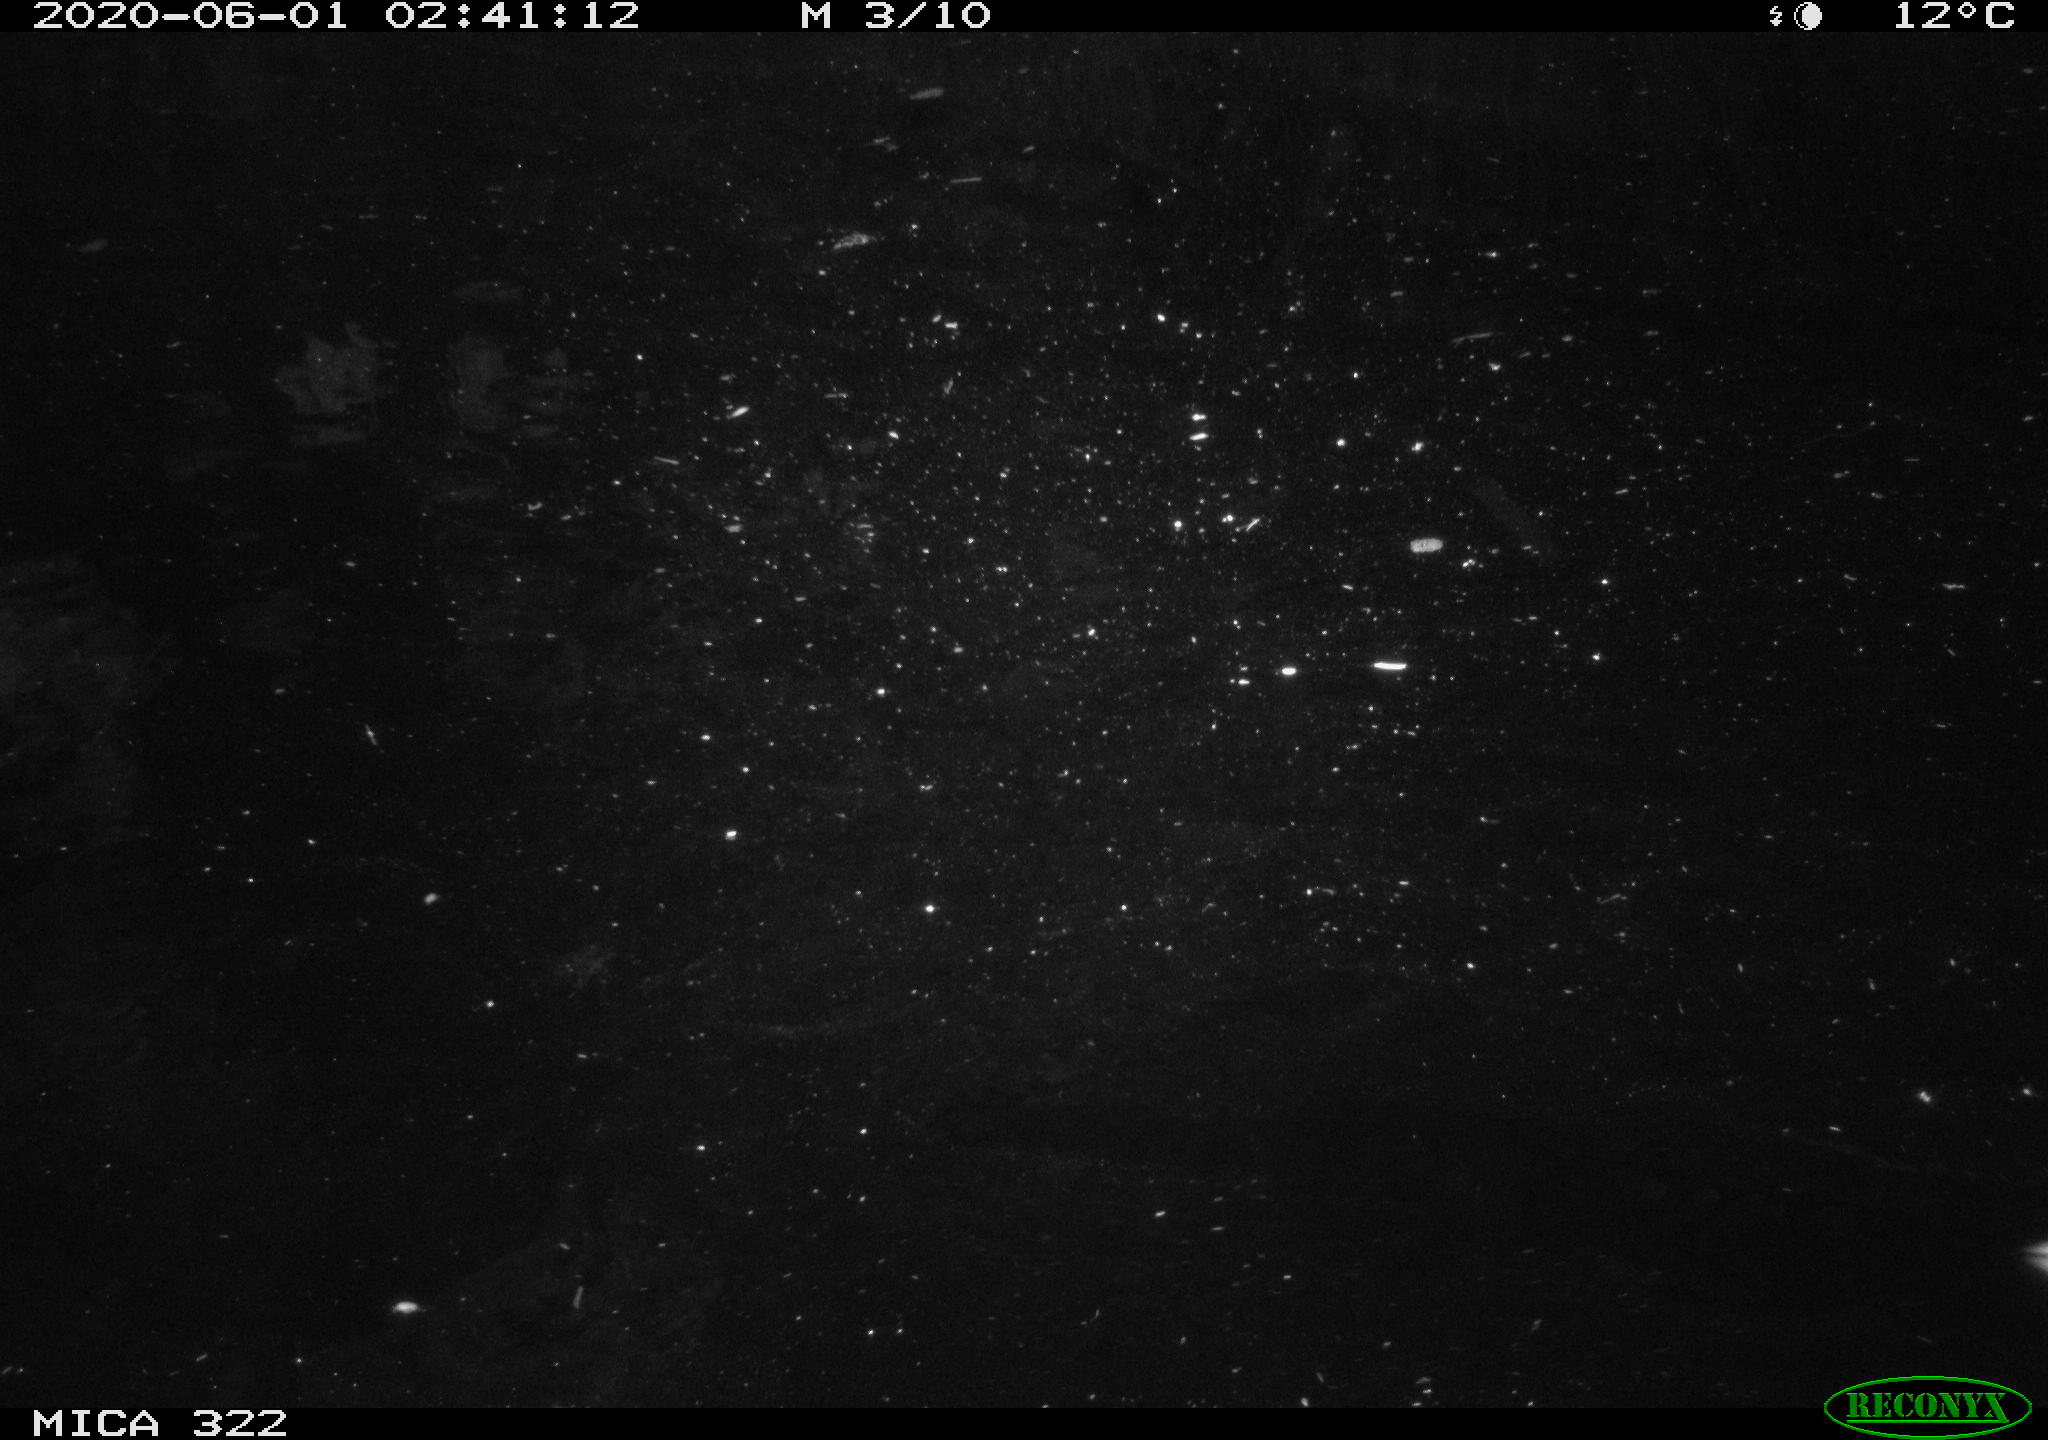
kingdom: Animalia
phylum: Chordata
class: Aves
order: Anseriformes
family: Anatidae
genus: Anas
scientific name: Anas platyrhynchos
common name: Mallard
